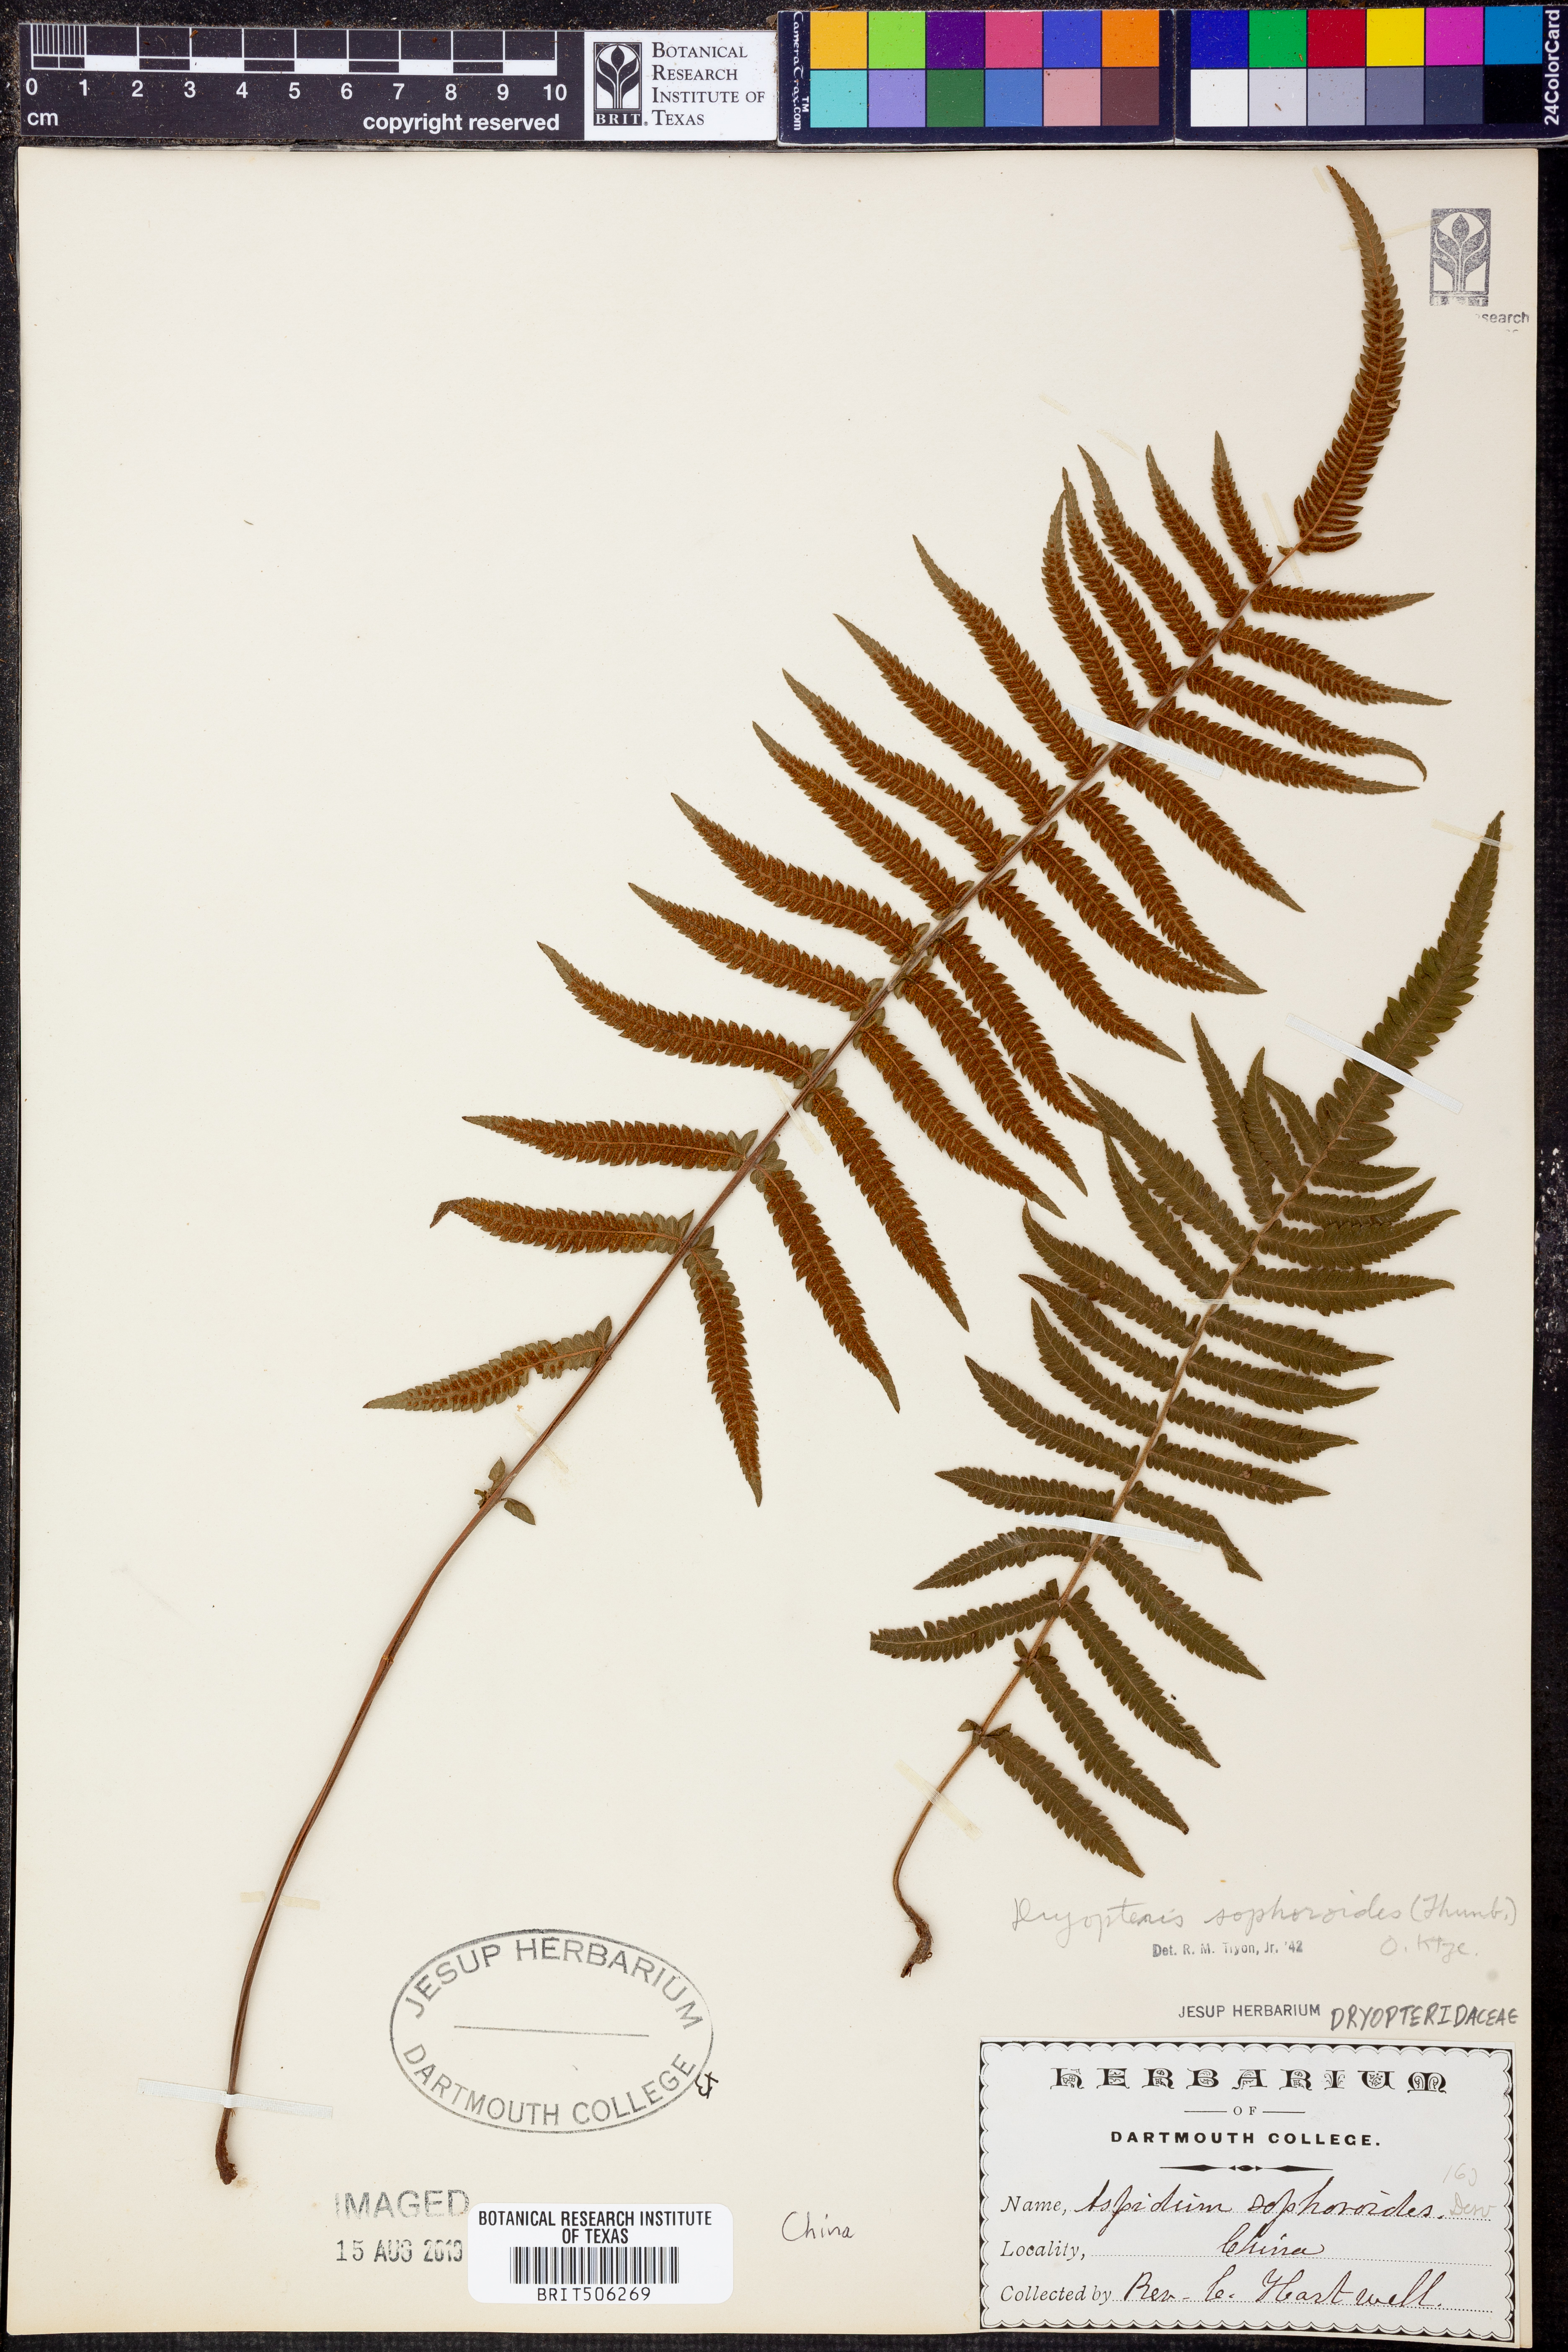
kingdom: Plantae
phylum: Tracheophyta
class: Polypodiopsida
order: Polypodiales
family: Thelypteridaceae
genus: Christella
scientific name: Christella acuminata
